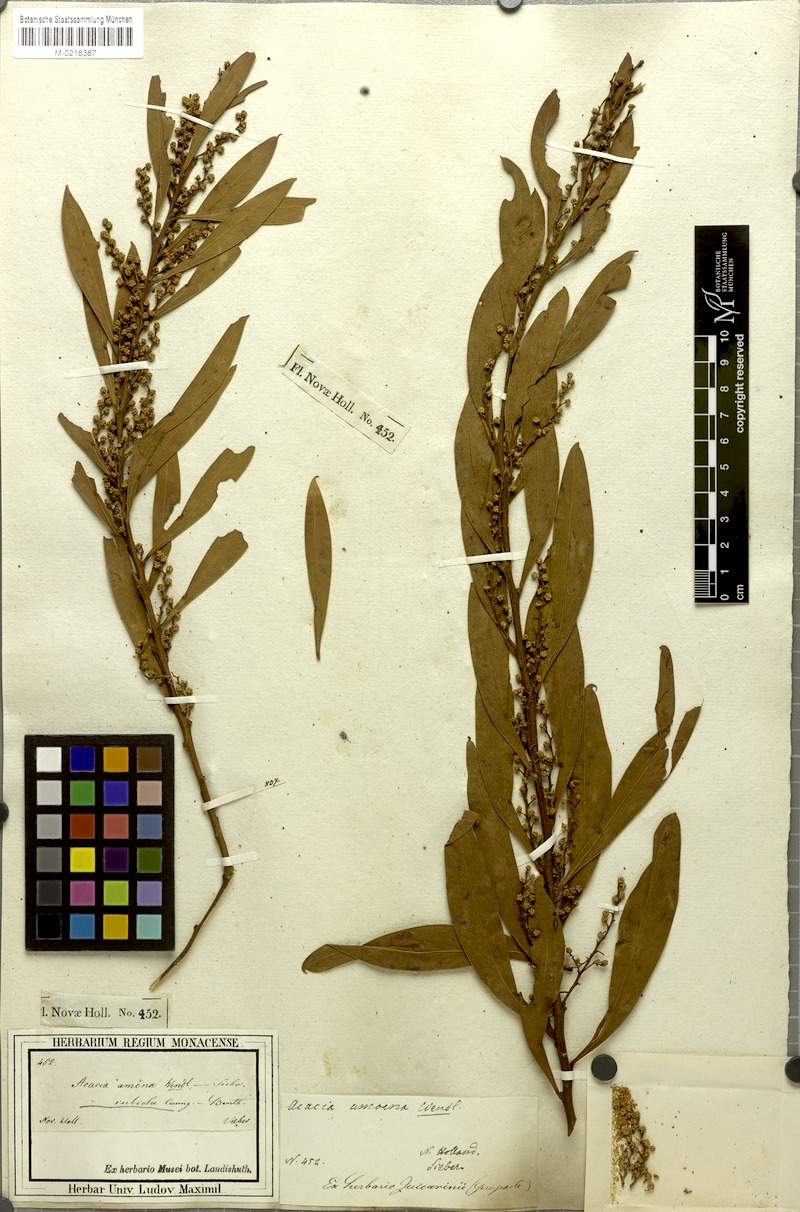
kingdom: Plantae
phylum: Tracheophyta
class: Magnoliopsida
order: Fabales
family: Fabaceae
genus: Acacia
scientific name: Acacia rubida
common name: Red leaf wattle
